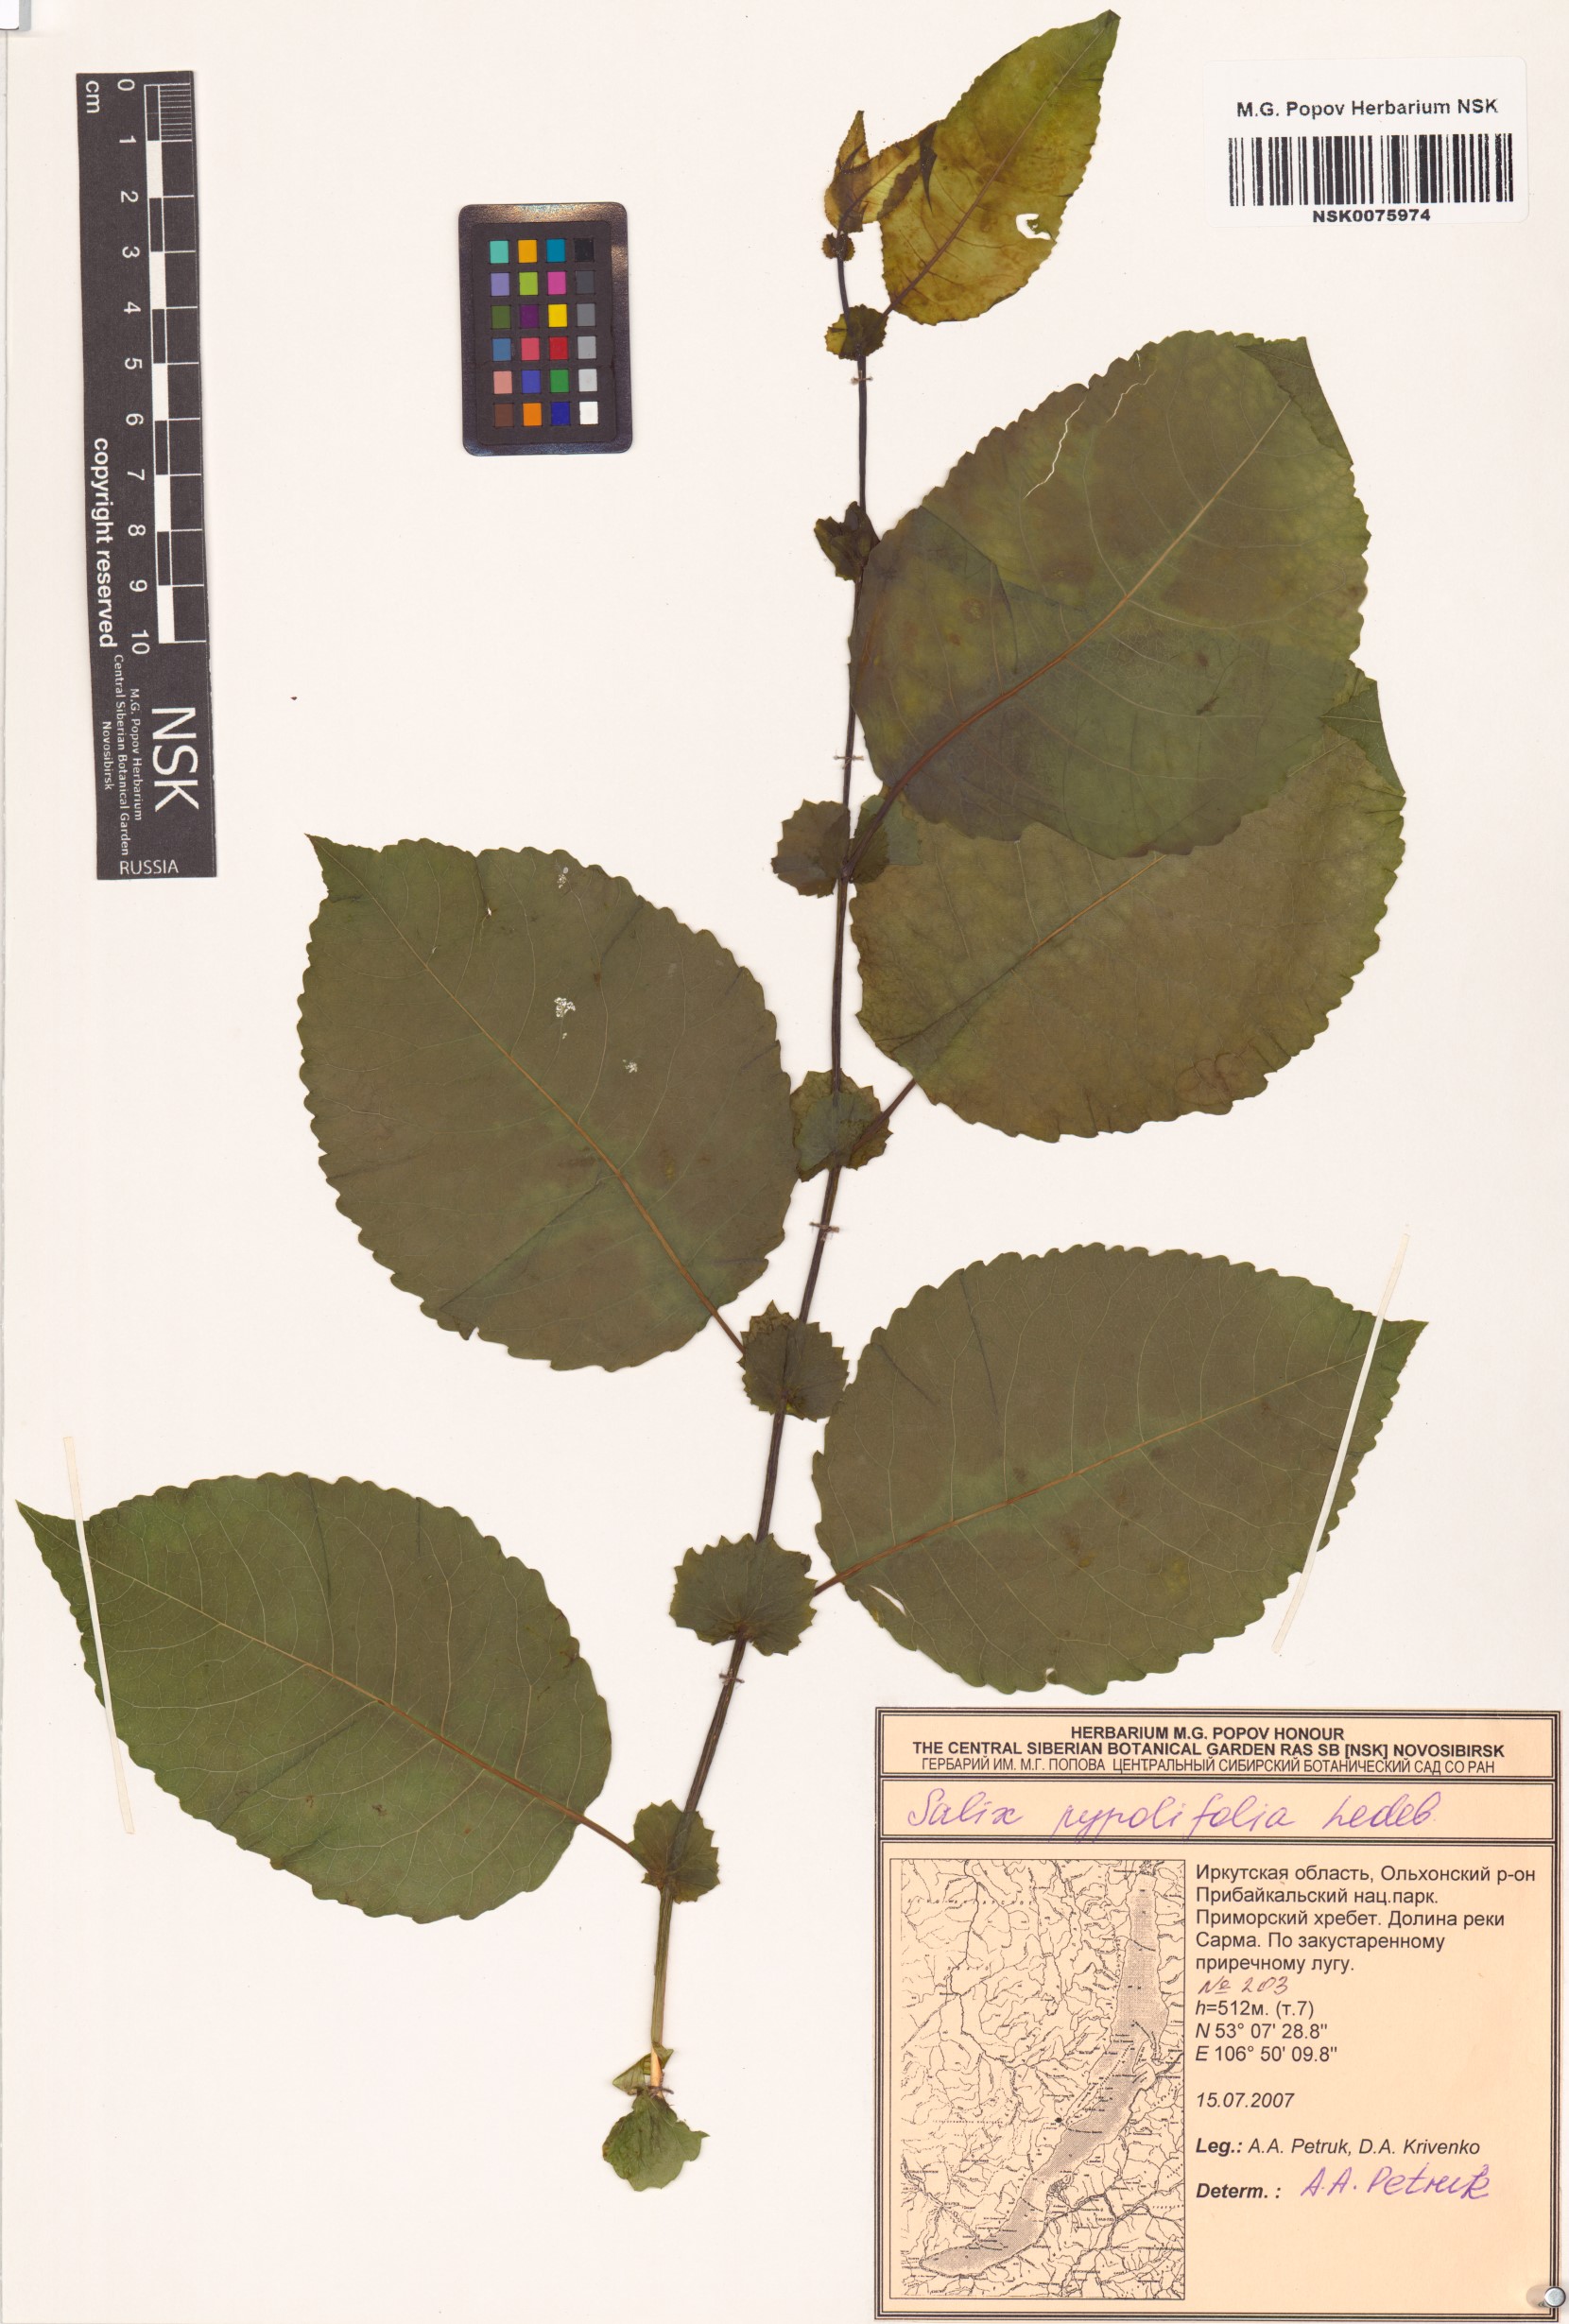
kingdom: Plantae
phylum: Tracheophyta
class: Magnoliopsida
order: Malpighiales
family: Salicaceae
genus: Salix
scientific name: Salix pyrolifolia
